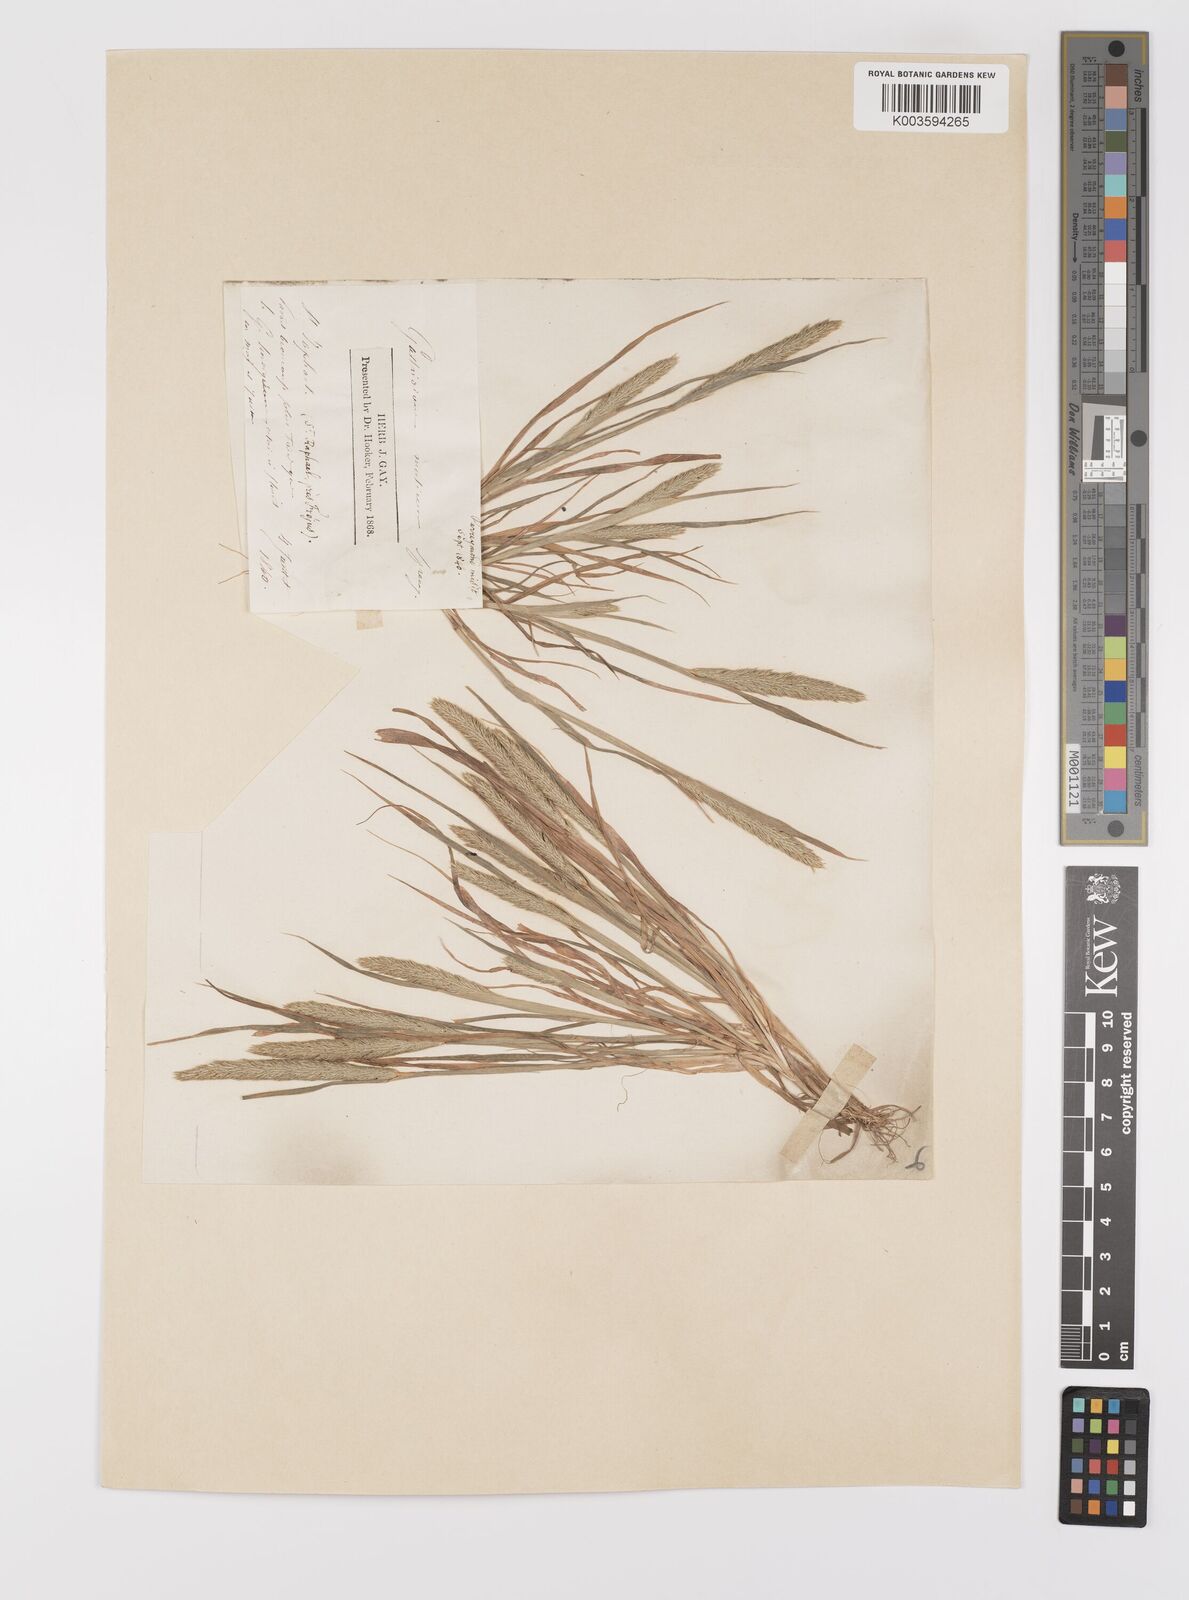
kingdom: Plantae
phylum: Tracheophyta
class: Liliopsida
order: Poales
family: Poaceae
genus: Gastridium
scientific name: Gastridium ventricosum
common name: Nit-grass
